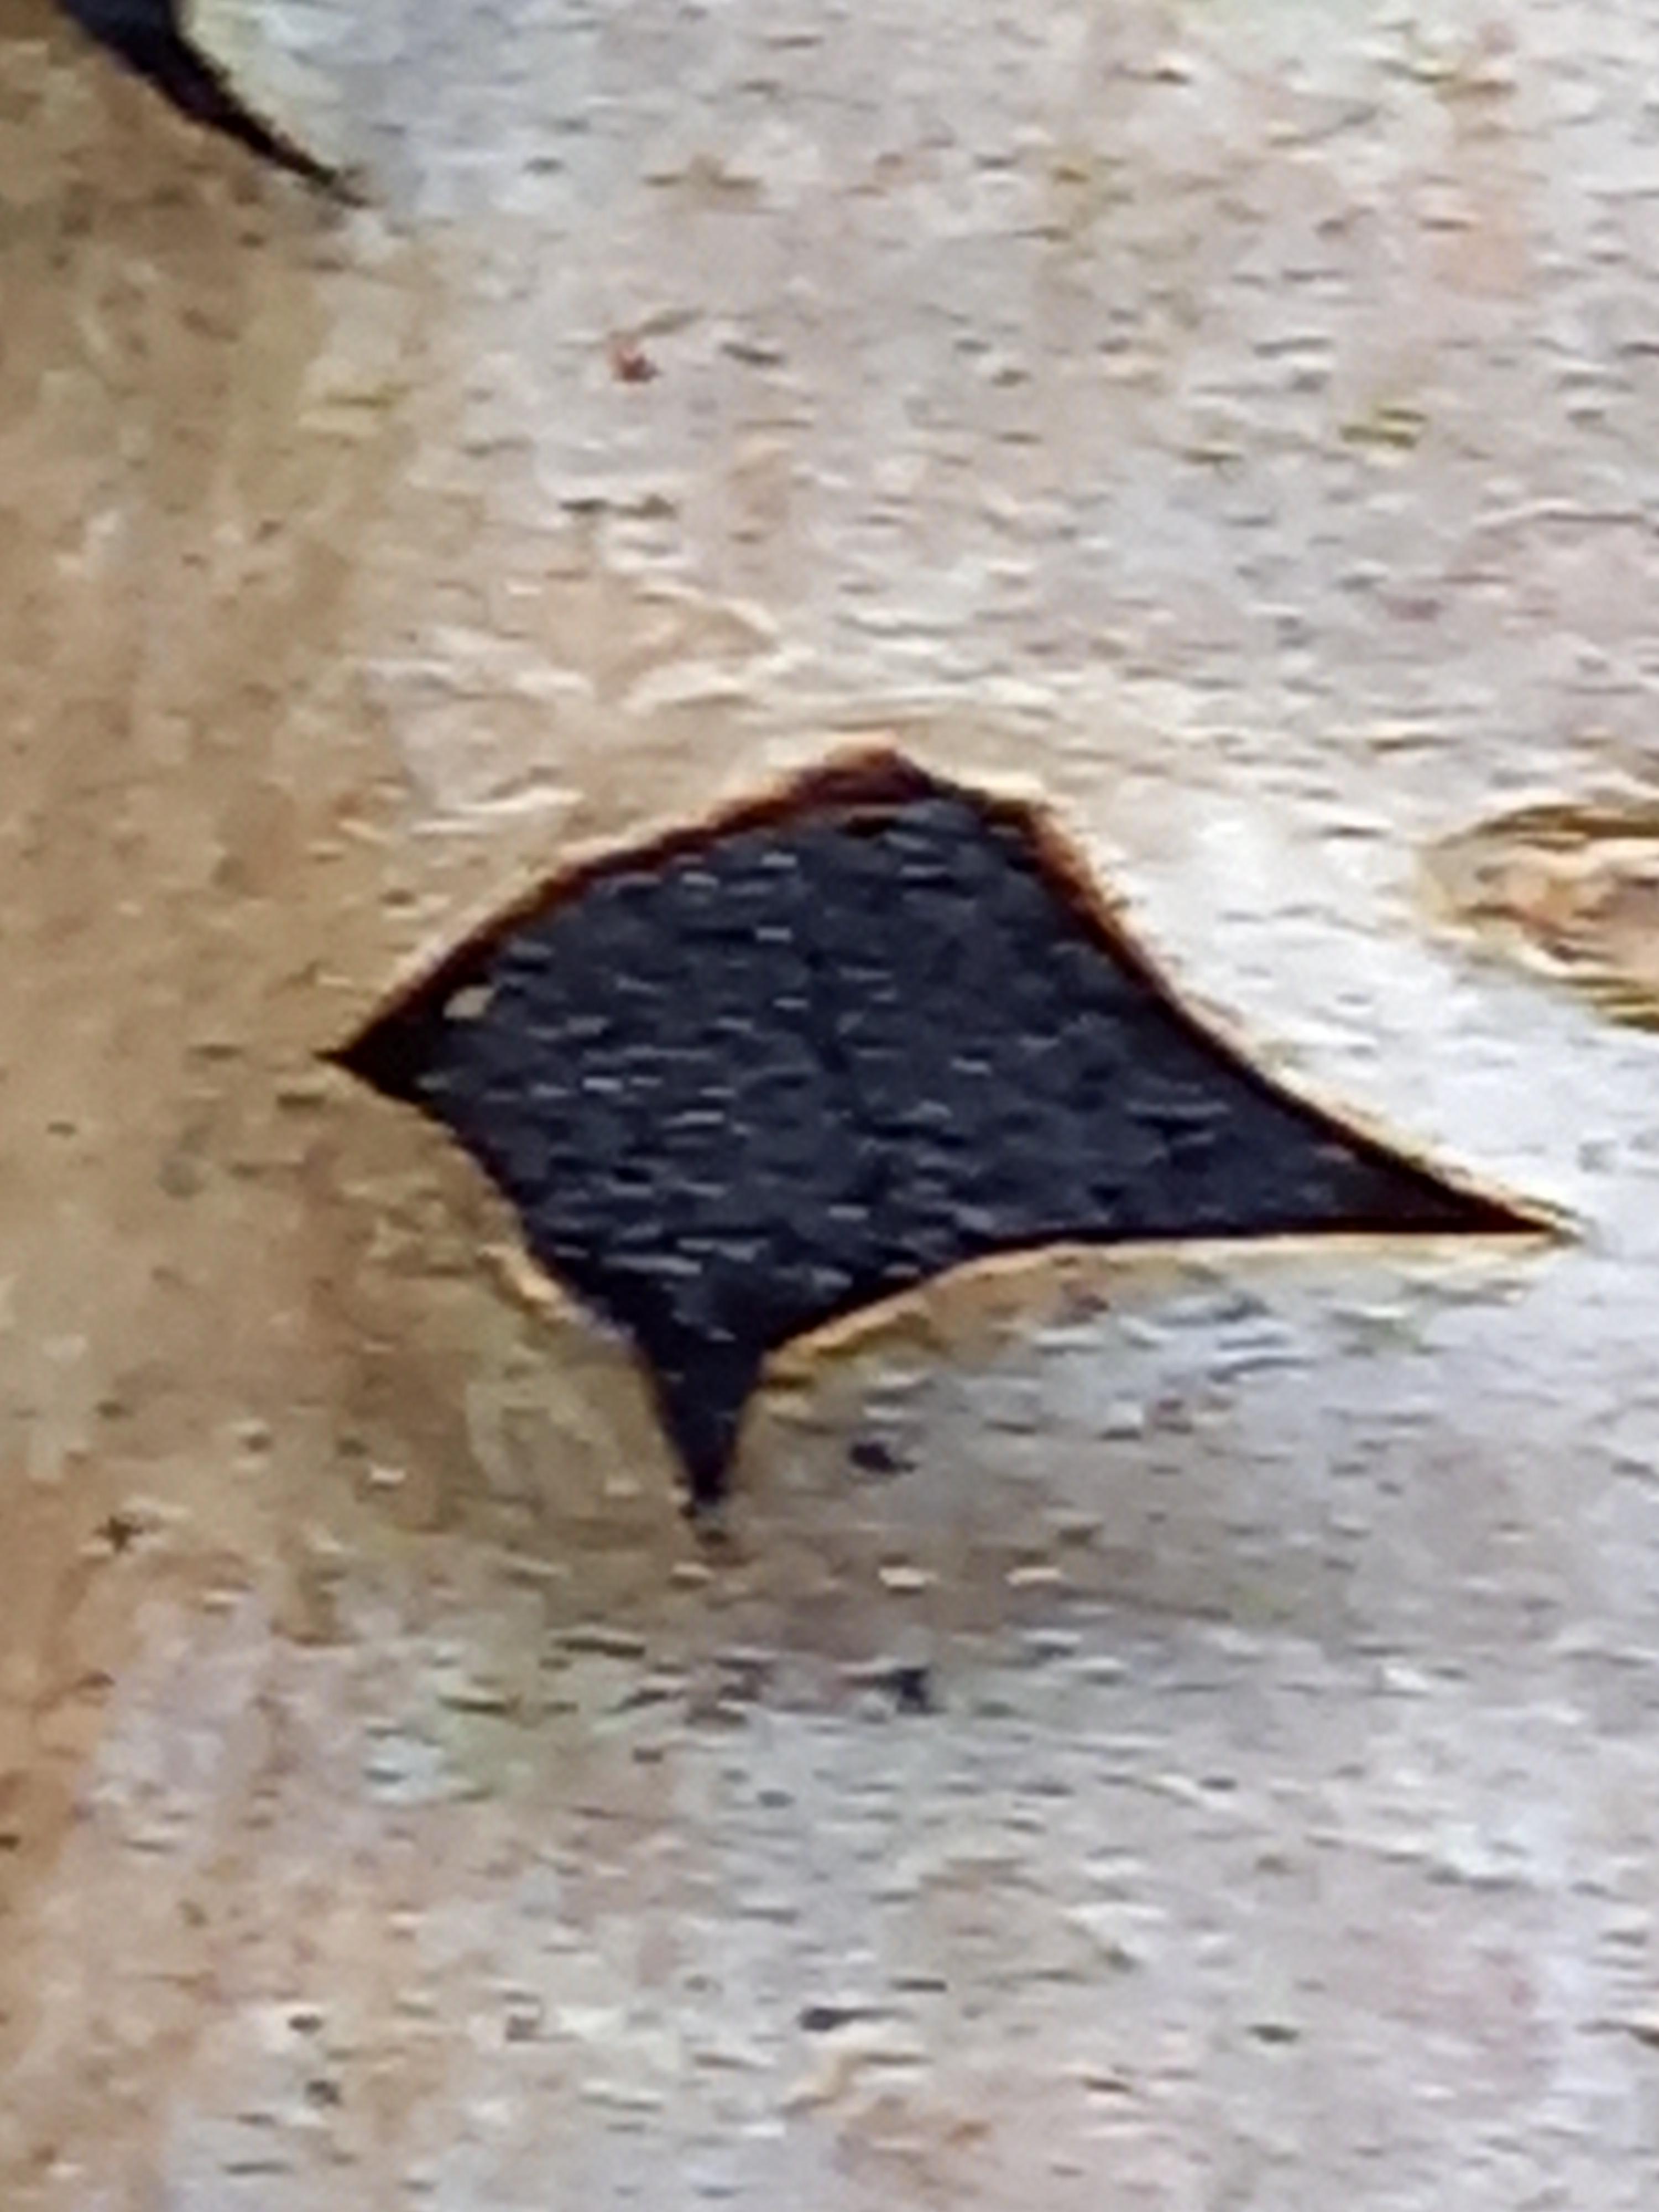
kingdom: Fungi
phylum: Ascomycota
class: Sordariomycetes
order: Xylariales
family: Diatrypaceae
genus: Eutypella
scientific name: Eutypella sorbi
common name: rønne-kulskorpe
